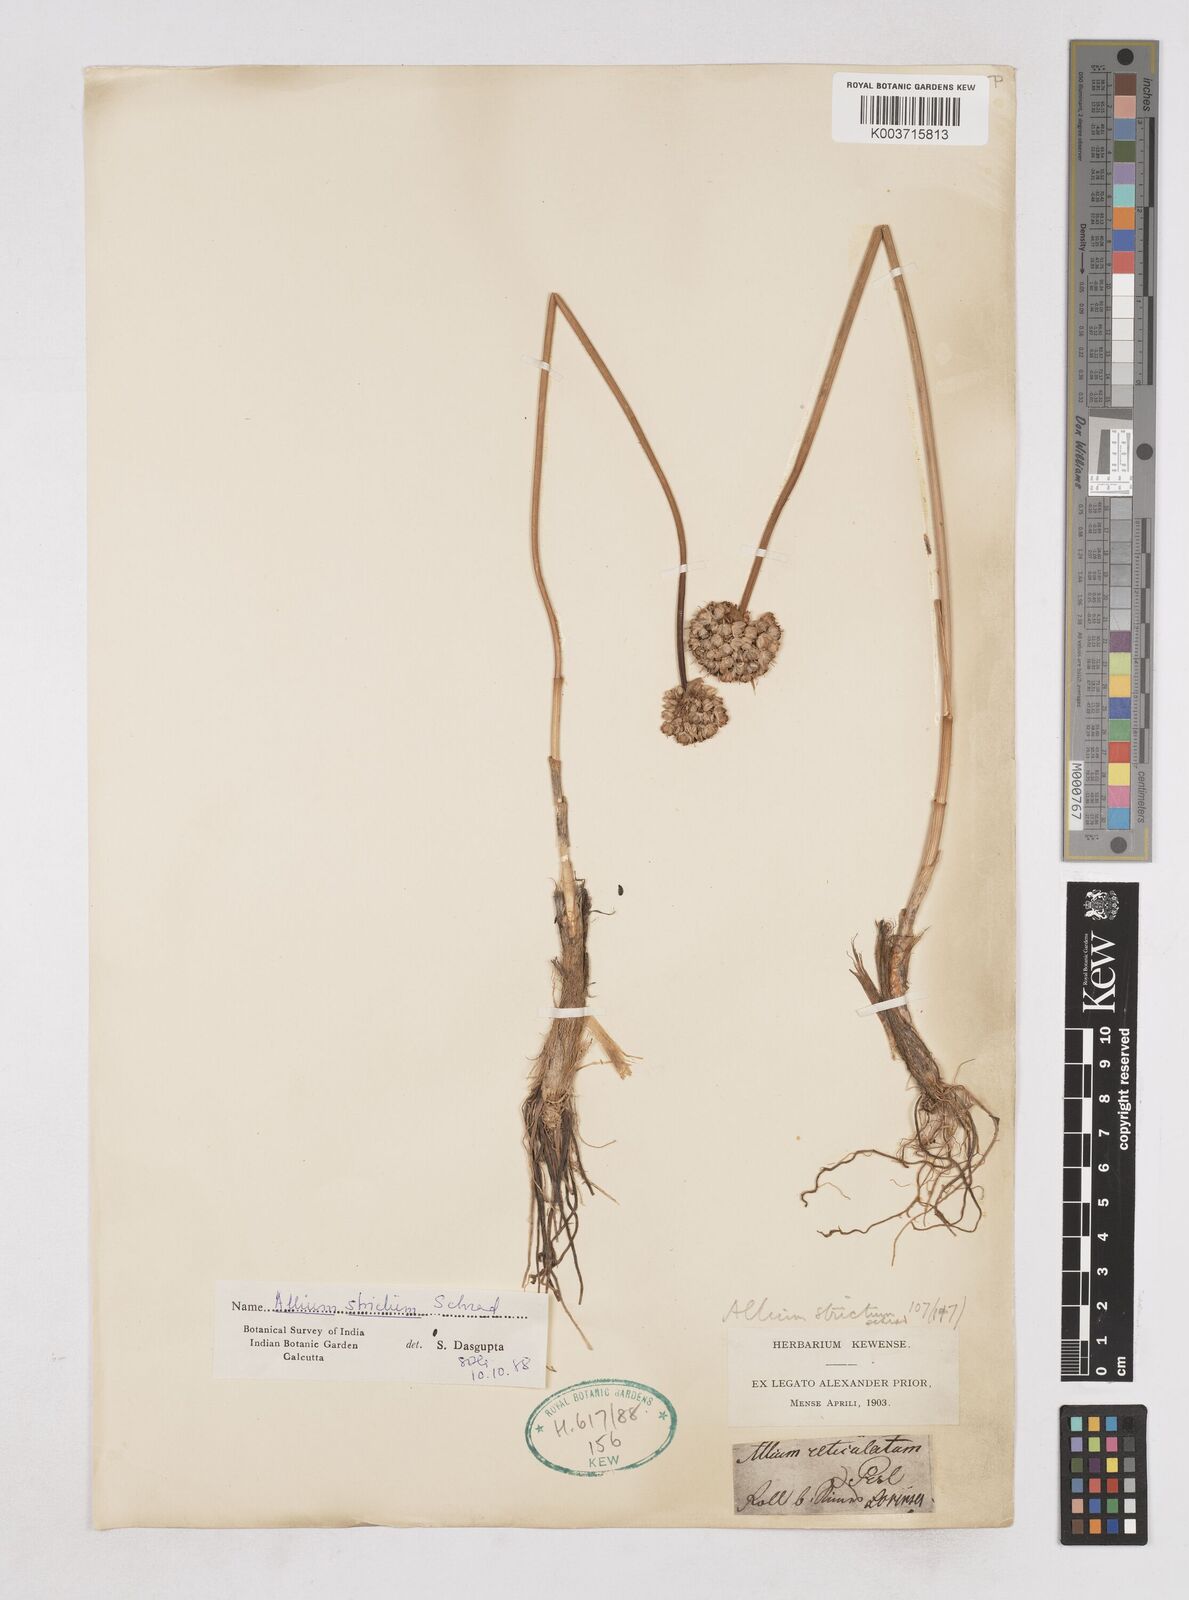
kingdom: Plantae
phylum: Tracheophyta
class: Liliopsida
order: Asparagales
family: Amaryllidaceae
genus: Allium
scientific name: Allium strictum
